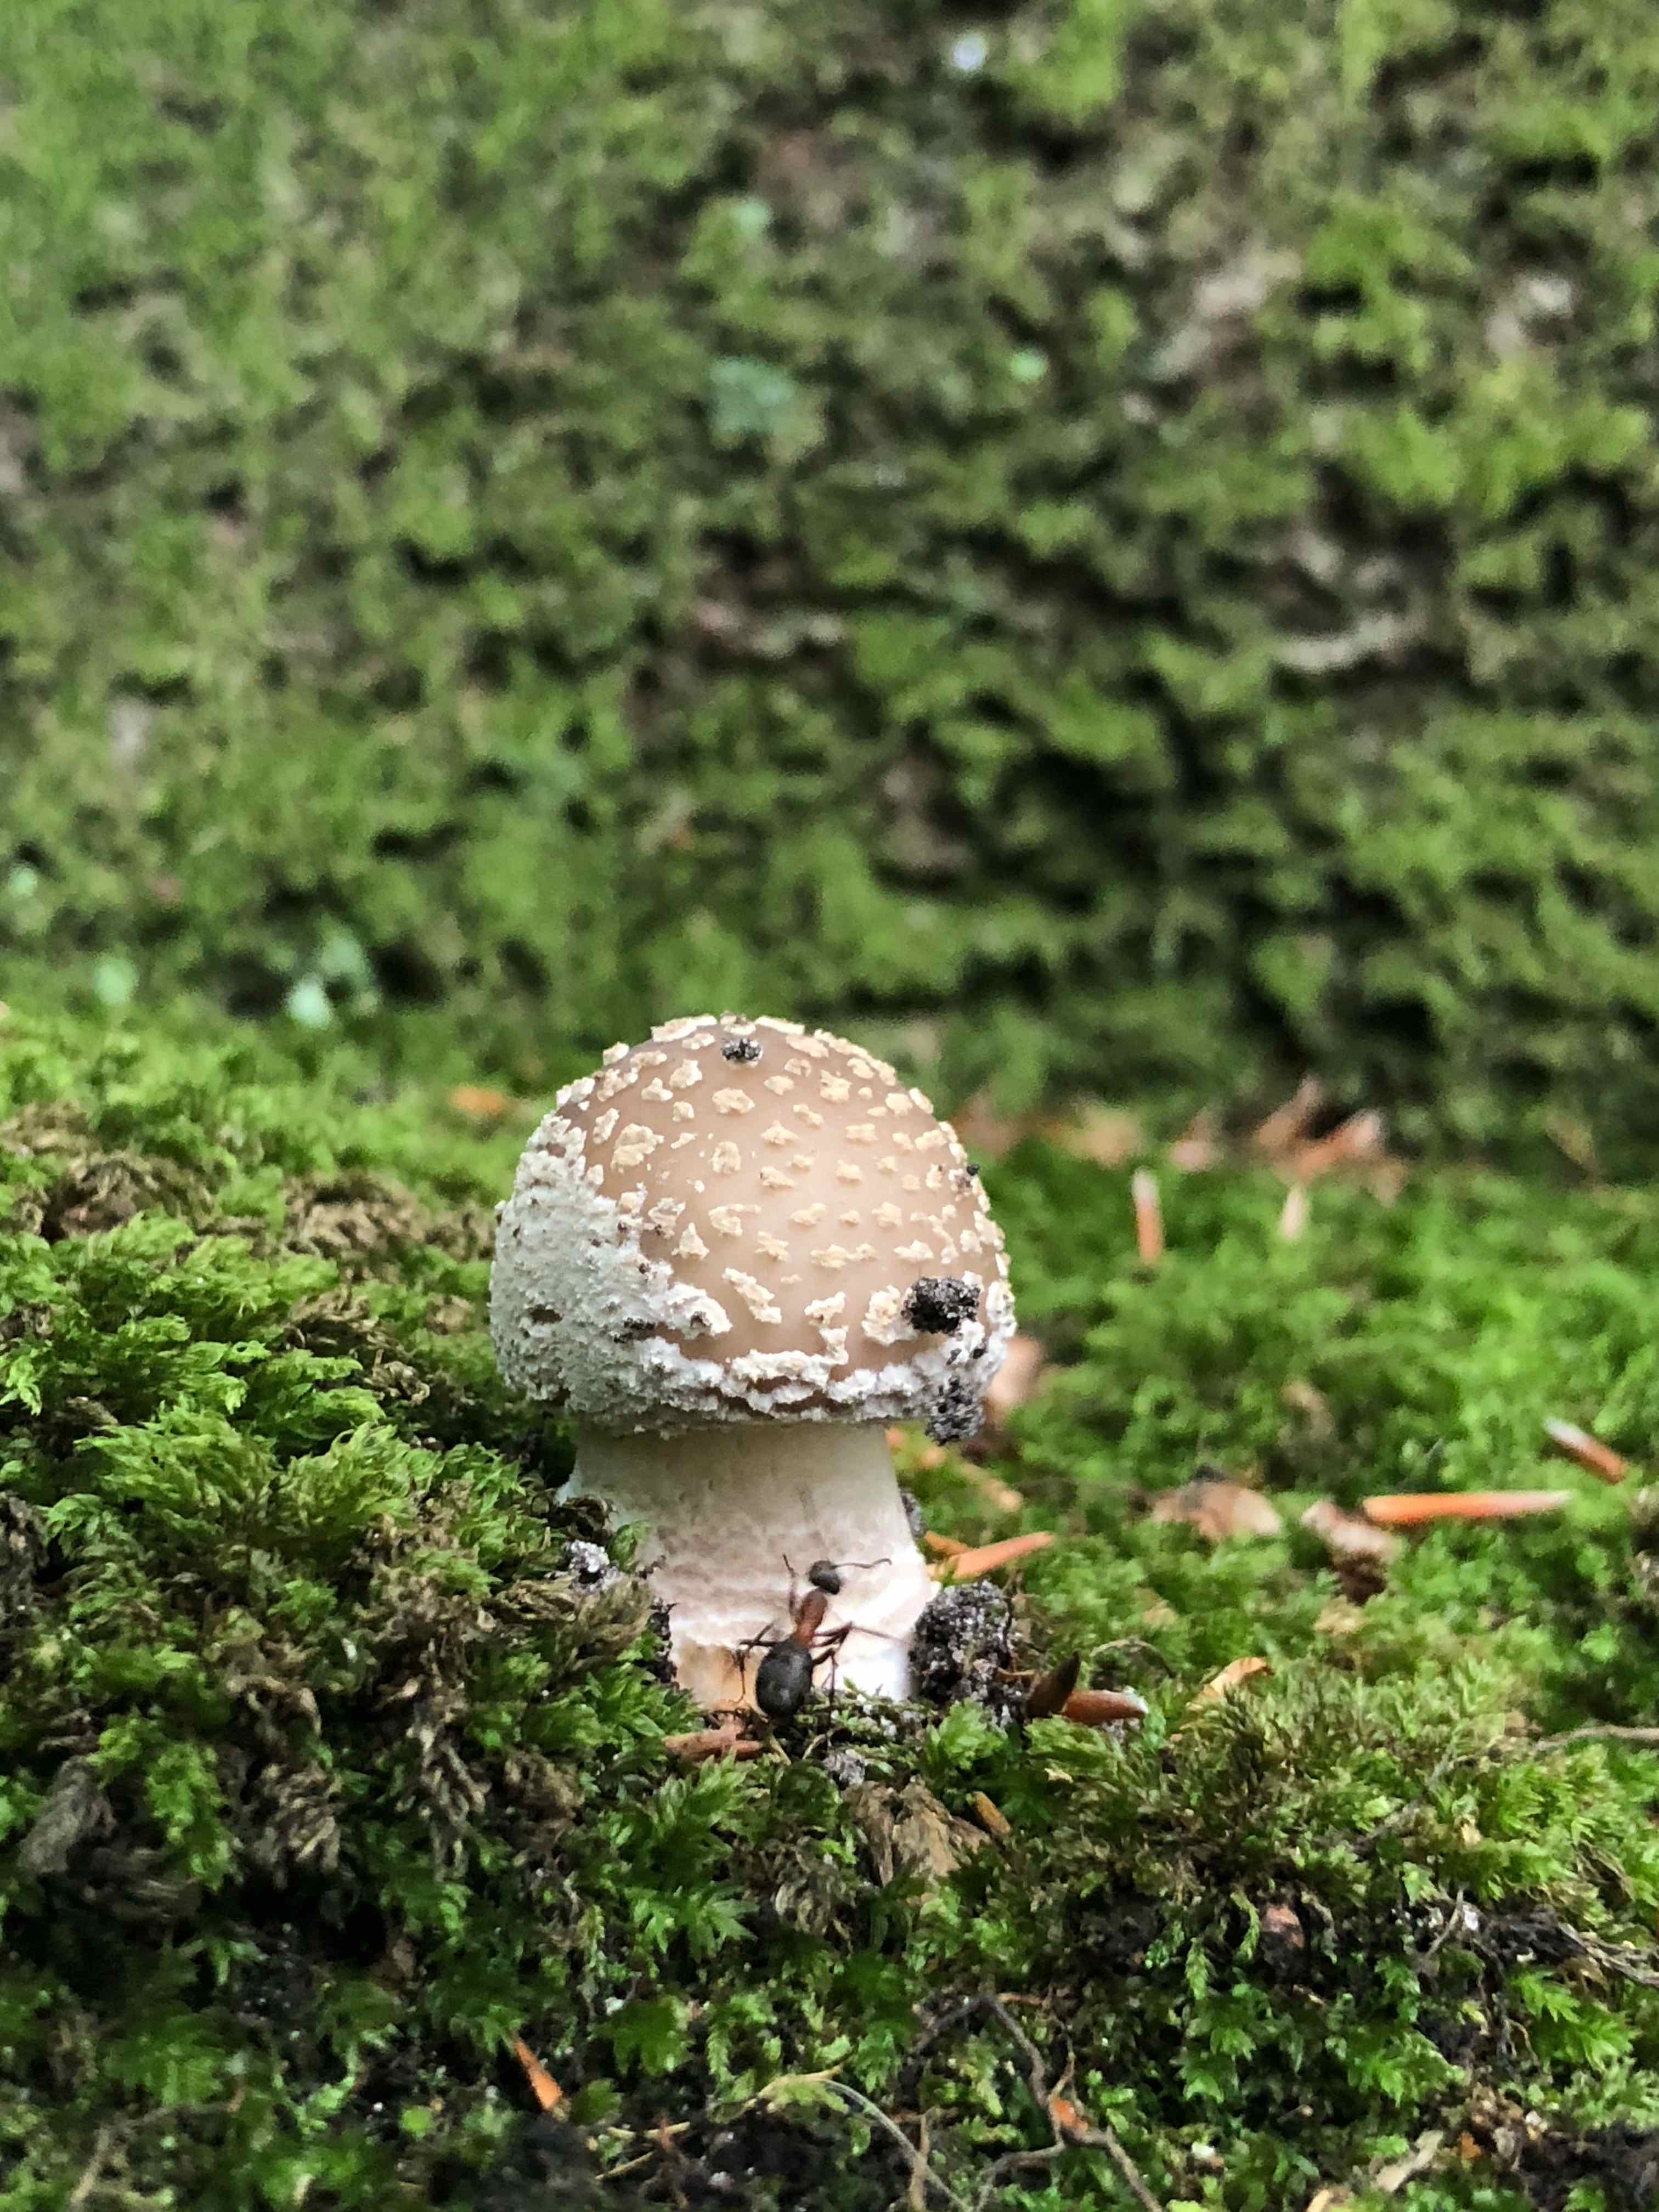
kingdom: Fungi
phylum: Basidiomycota
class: Agaricomycetes
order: Agaricales
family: Amanitaceae
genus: Amanita
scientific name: Amanita
